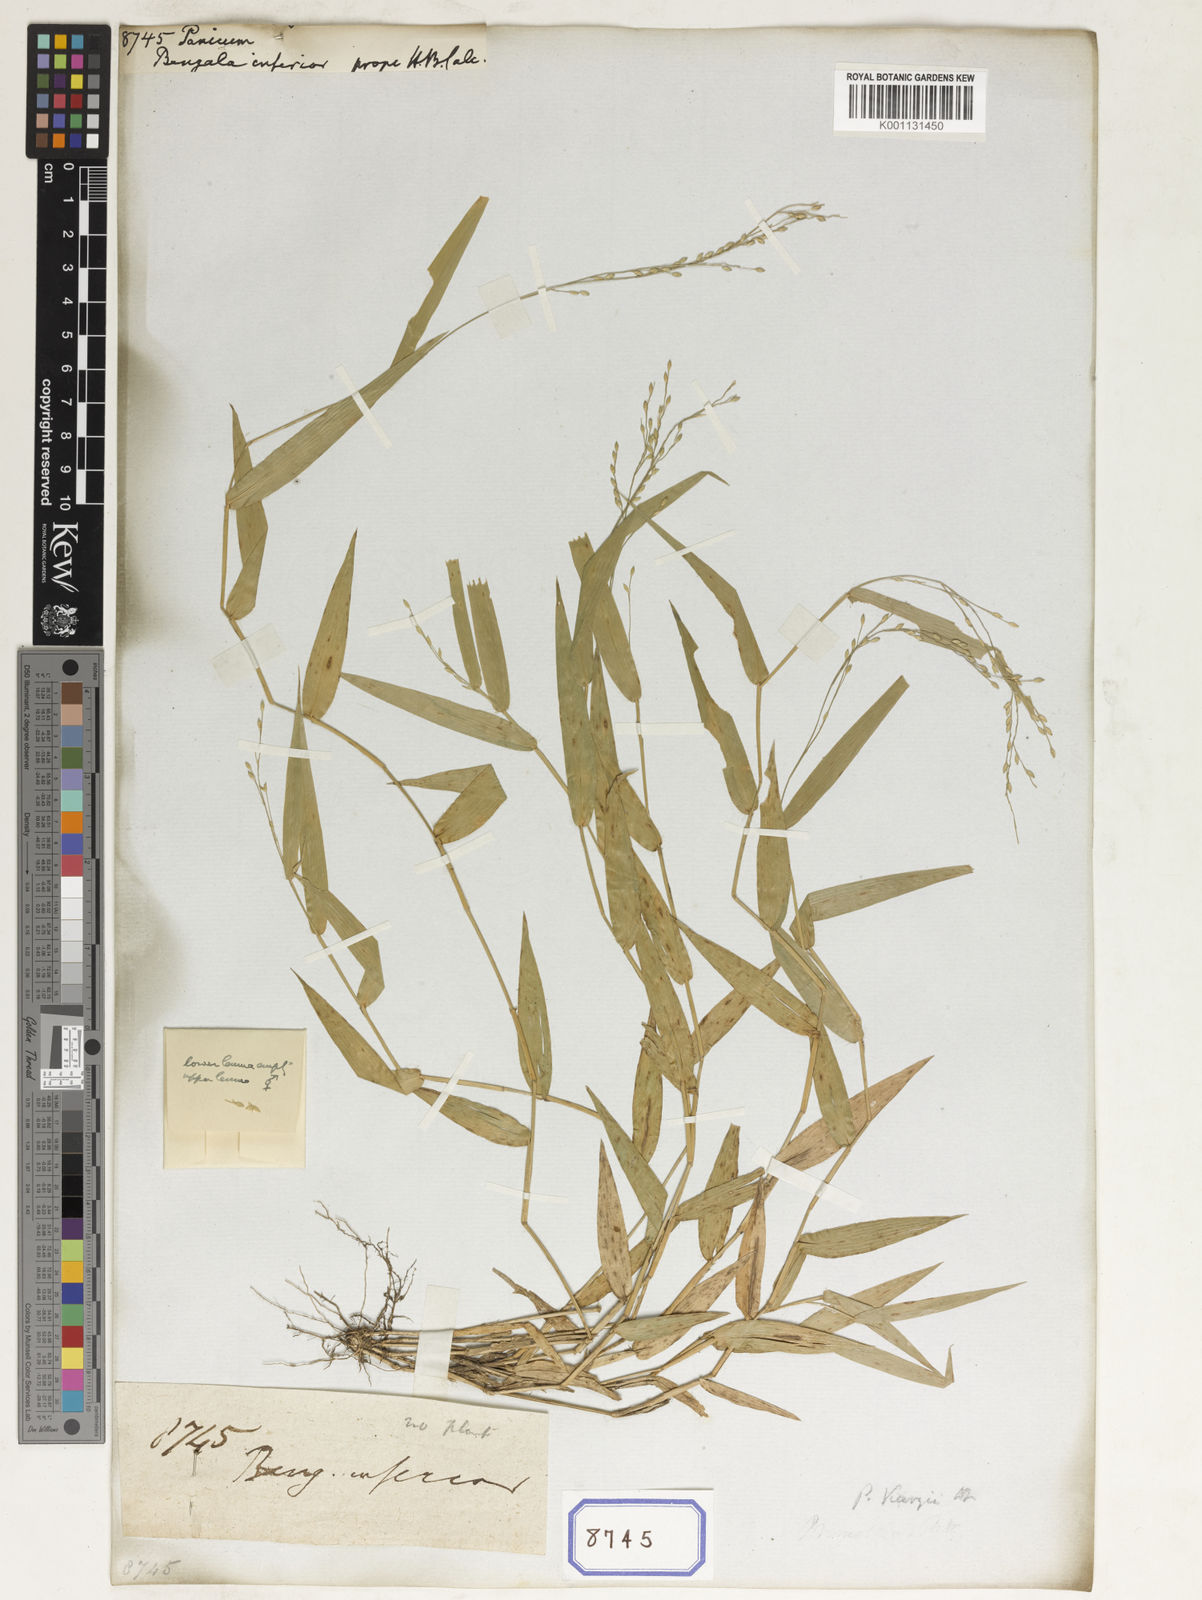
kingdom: Plantae
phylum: Tracheophyta
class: Liliopsida
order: Poales
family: Poaceae
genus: Panicum
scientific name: Panicum
